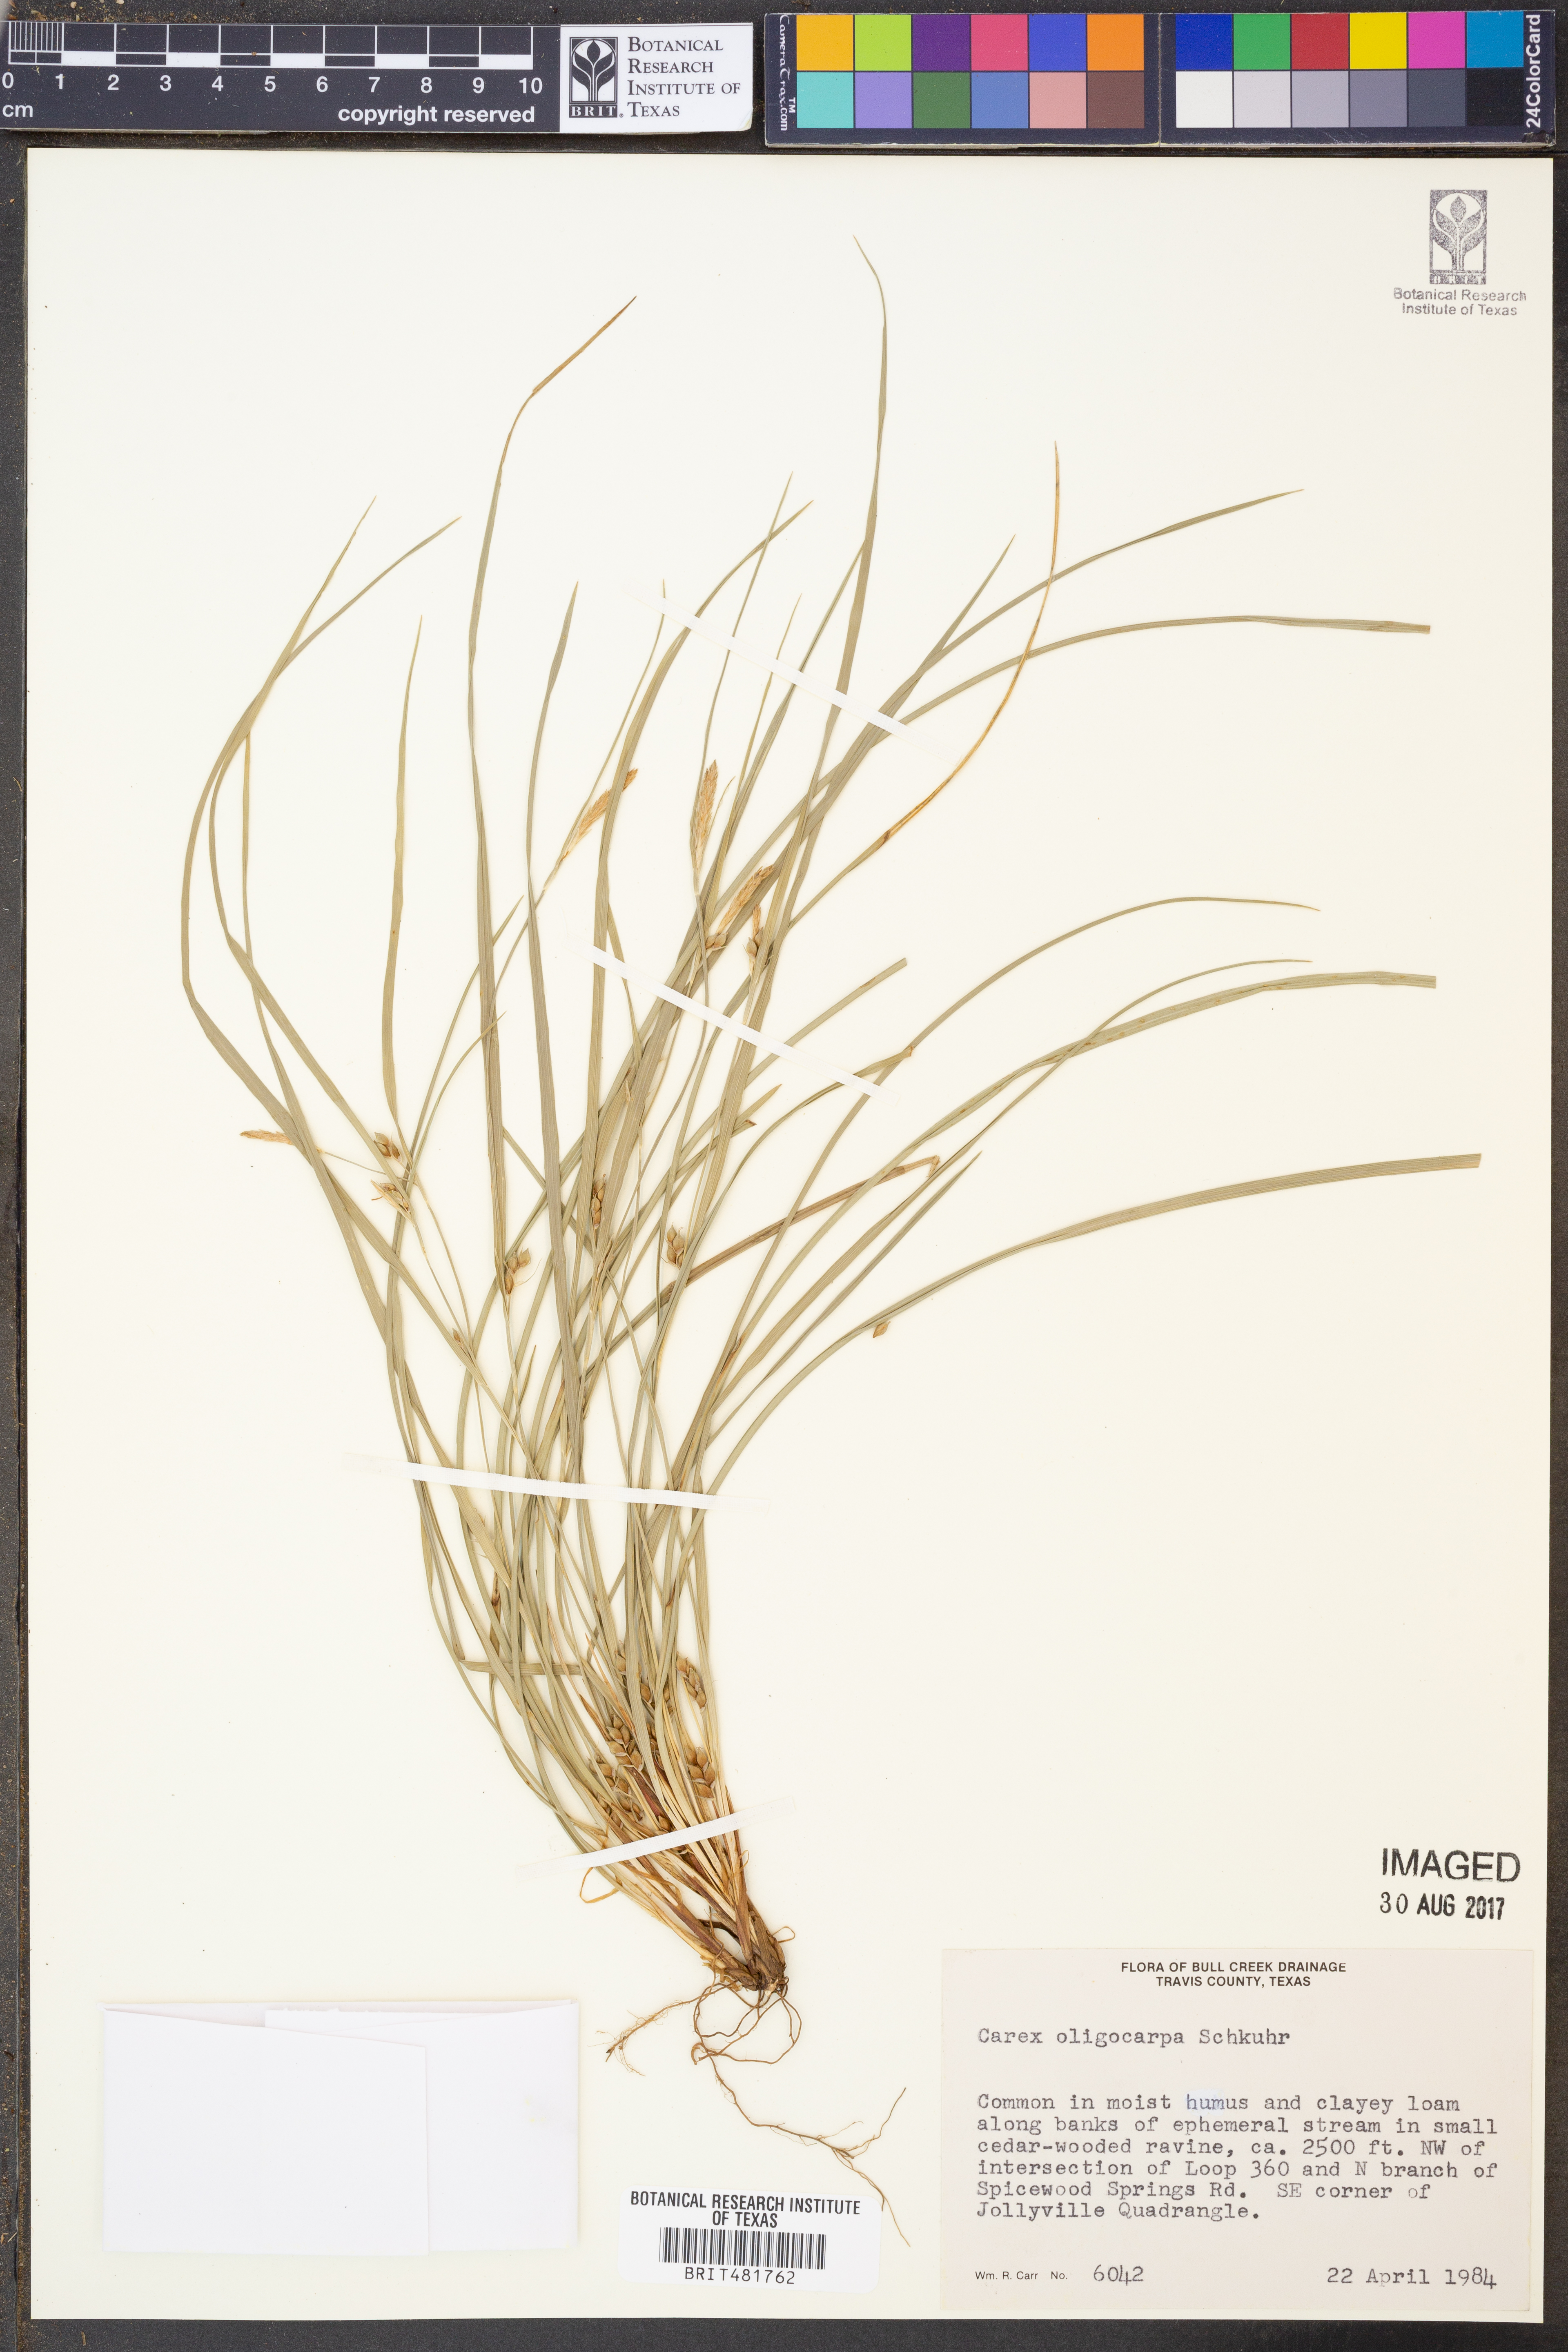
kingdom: Plantae
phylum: Tracheophyta
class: Liliopsida
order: Poales
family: Cyperaceae
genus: Carex
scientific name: Carex oligocarpa
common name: Eastern few-fruited sedge
